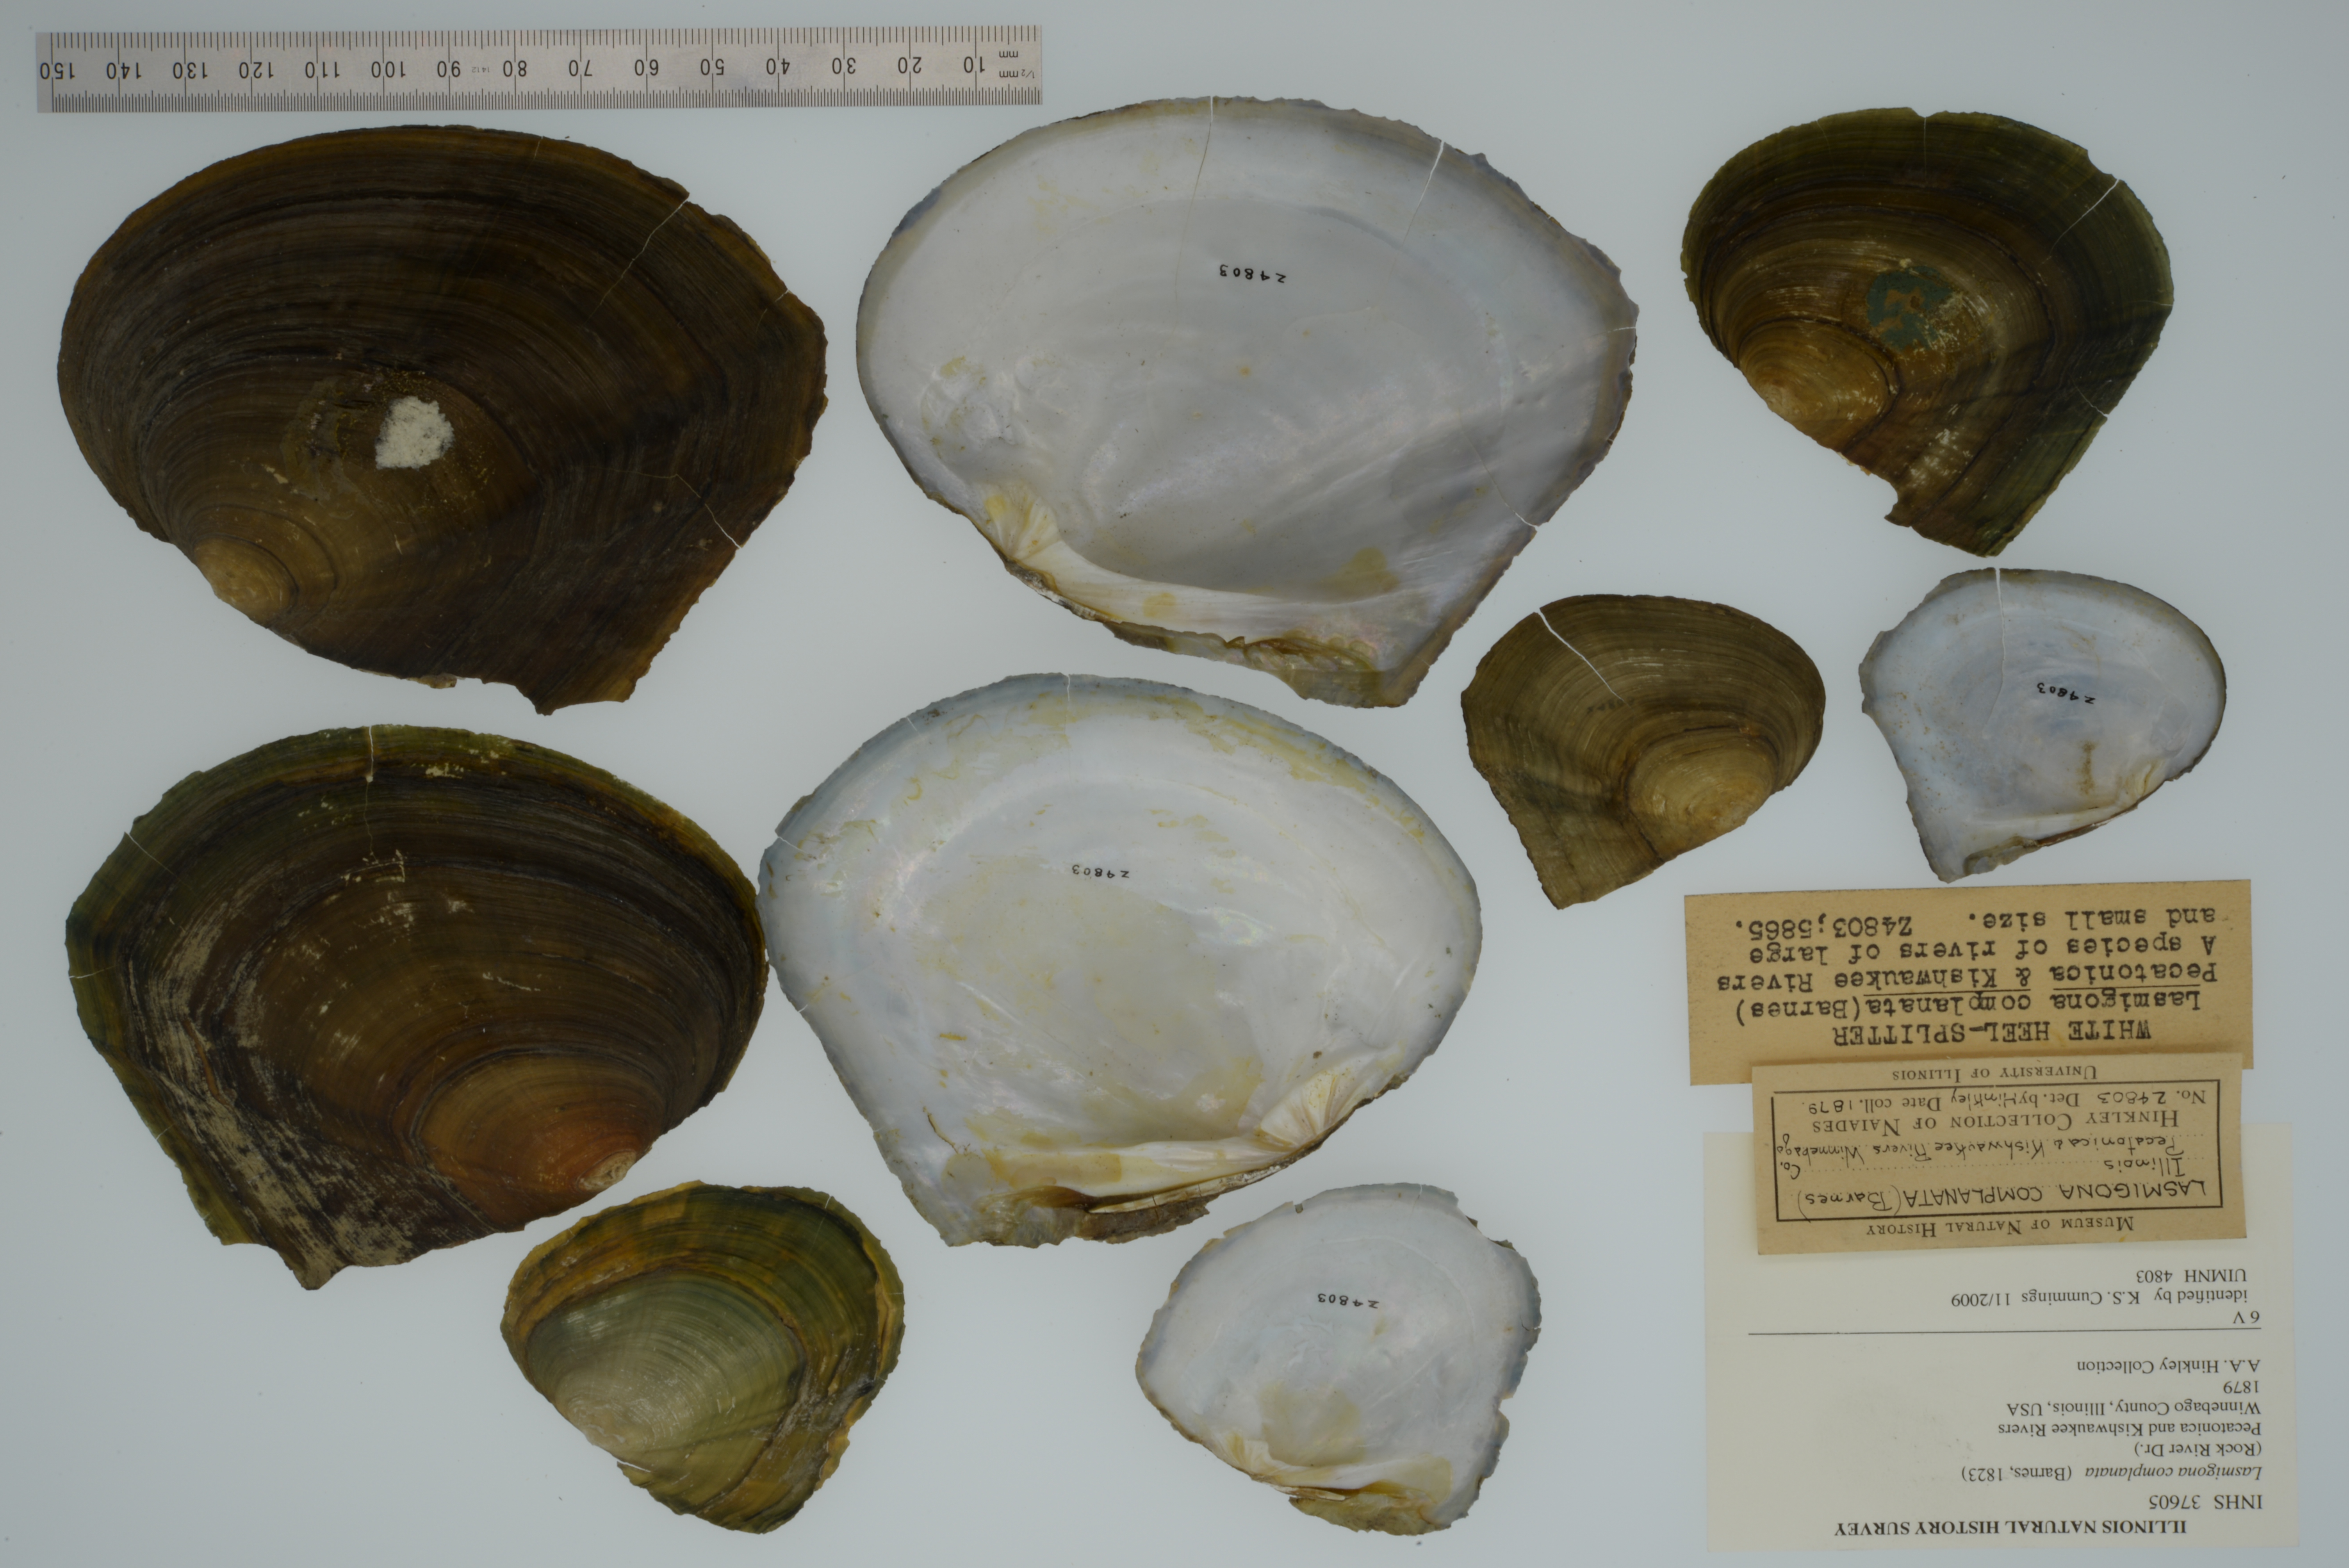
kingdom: Animalia
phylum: Mollusca
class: Bivalvia
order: Unionida
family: Unionidae
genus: Lasmigona
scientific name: Lasmigona complanata
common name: White heelsplitter
